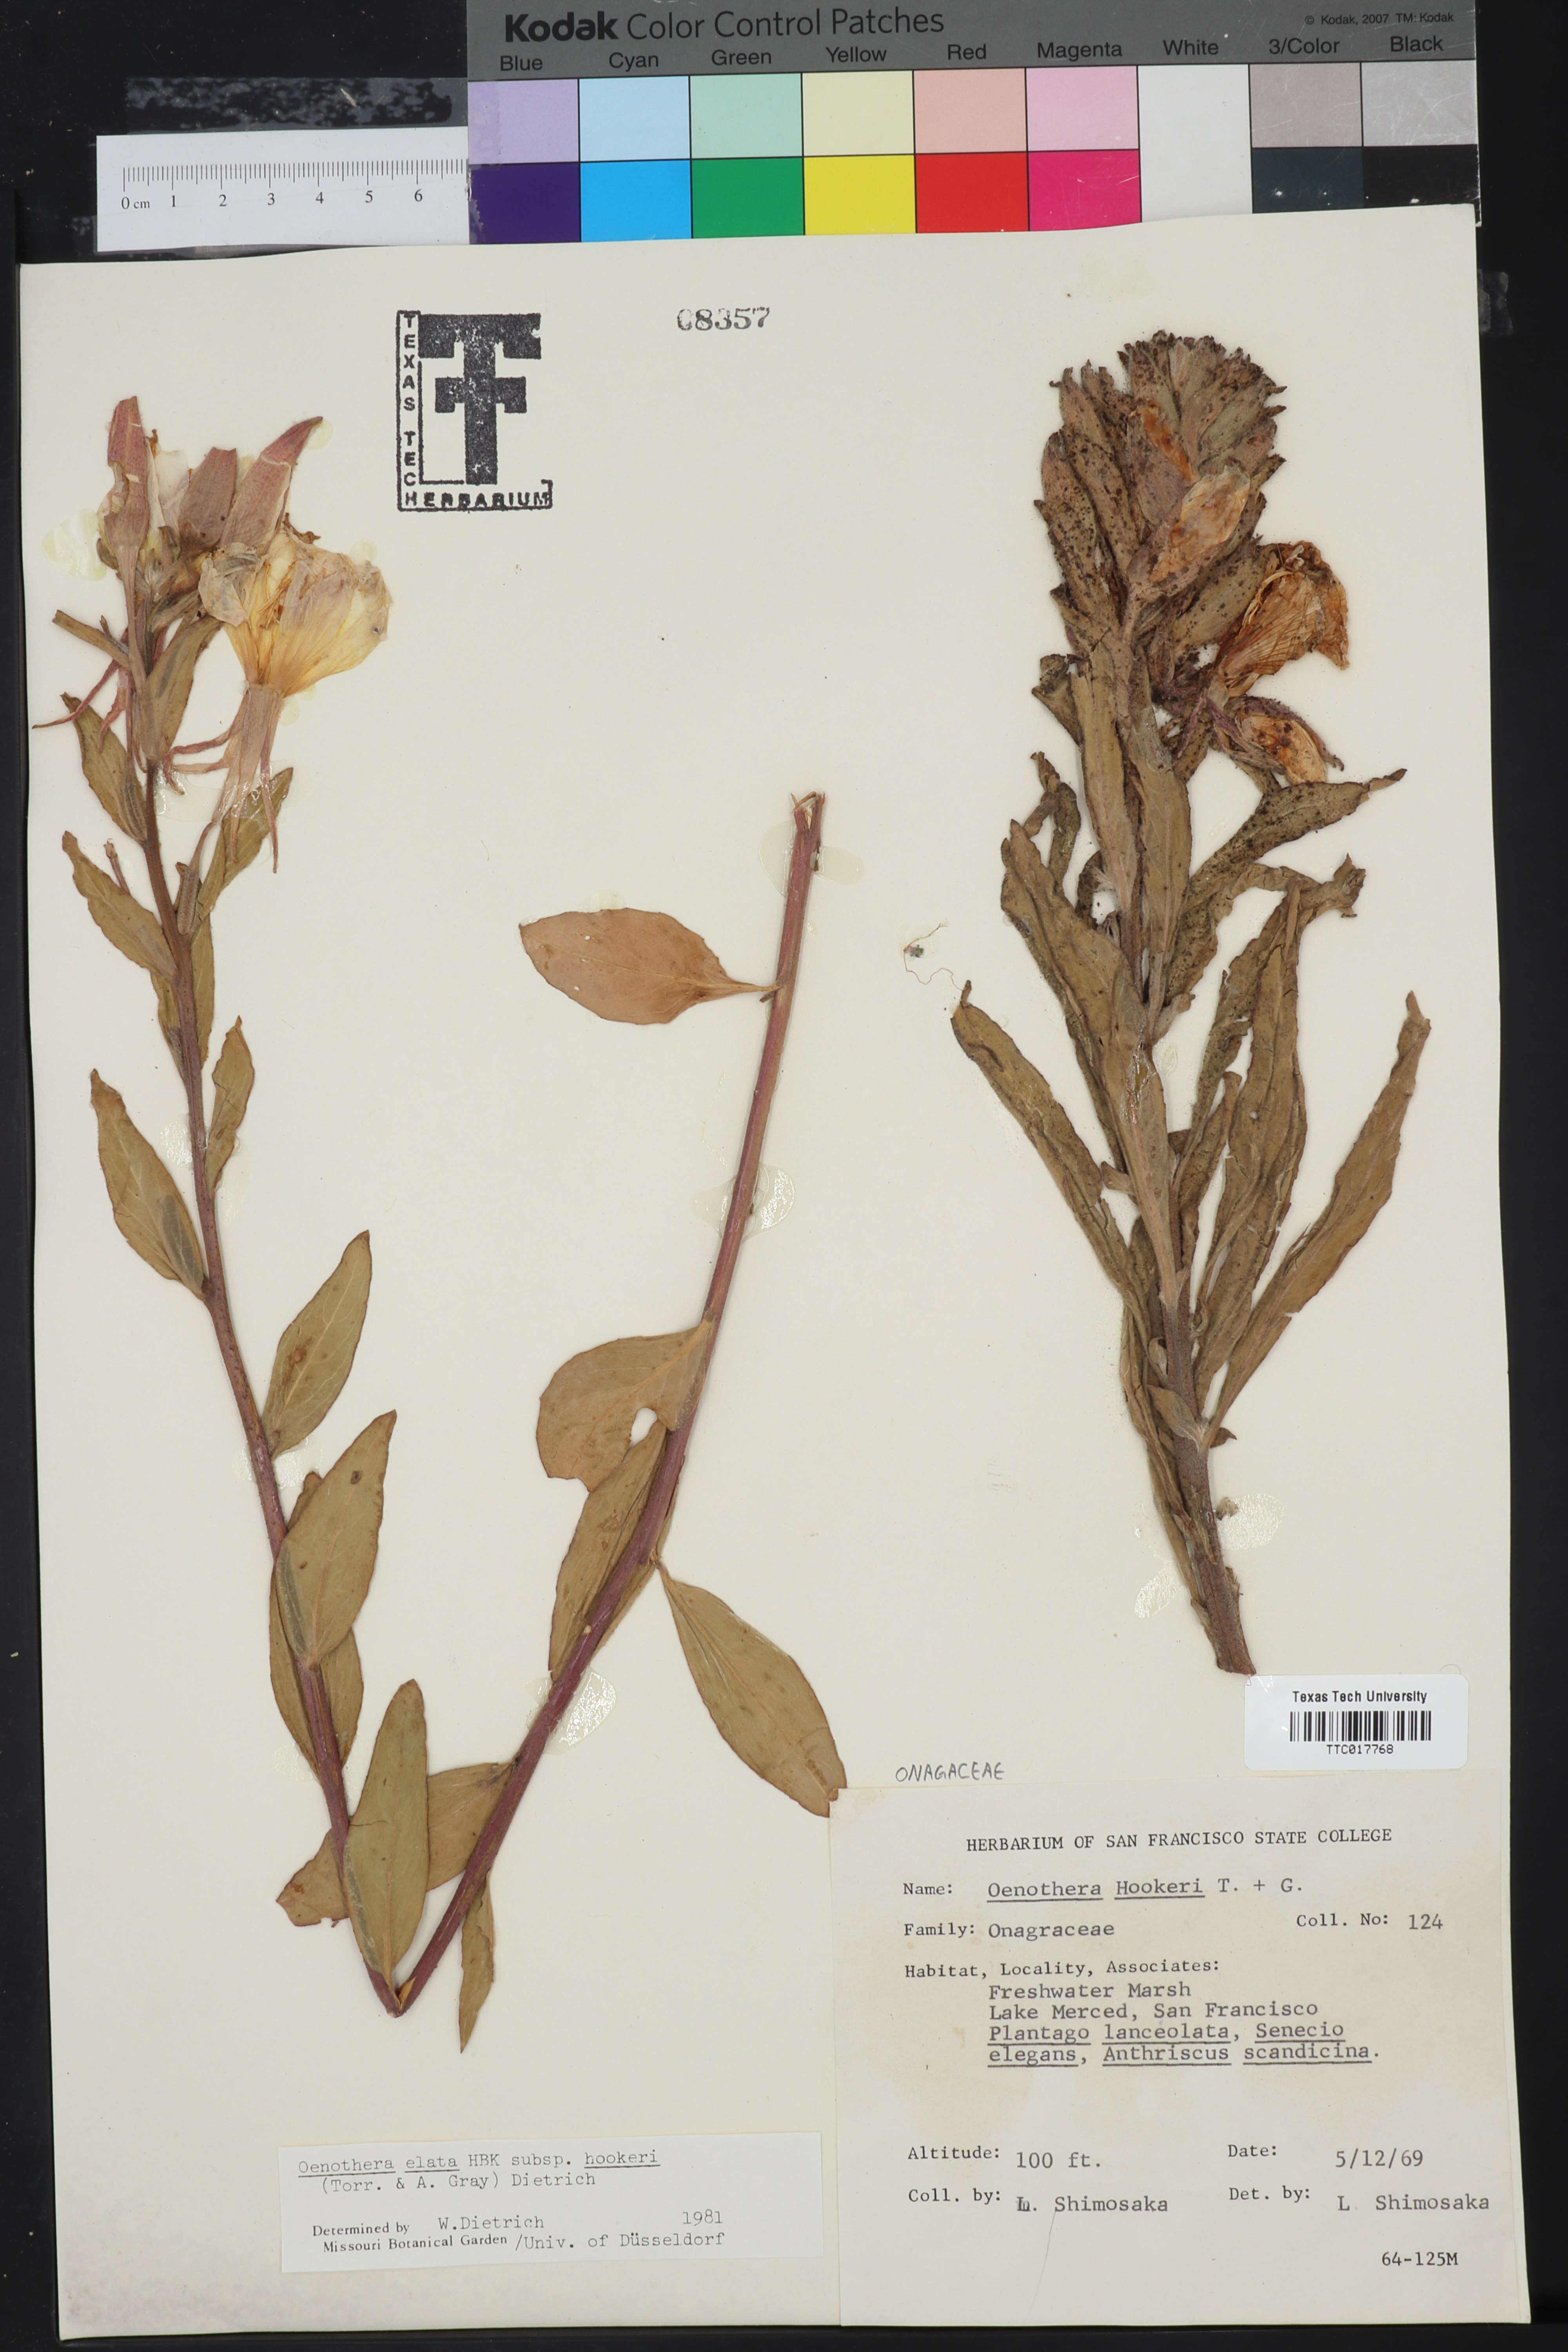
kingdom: Plantae
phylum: Tracheophyta
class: Magnoliopsida
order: Myrtales
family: Onagraceae
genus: Oenothera
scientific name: Oenothera elata
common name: Hooker's evening-primrose
